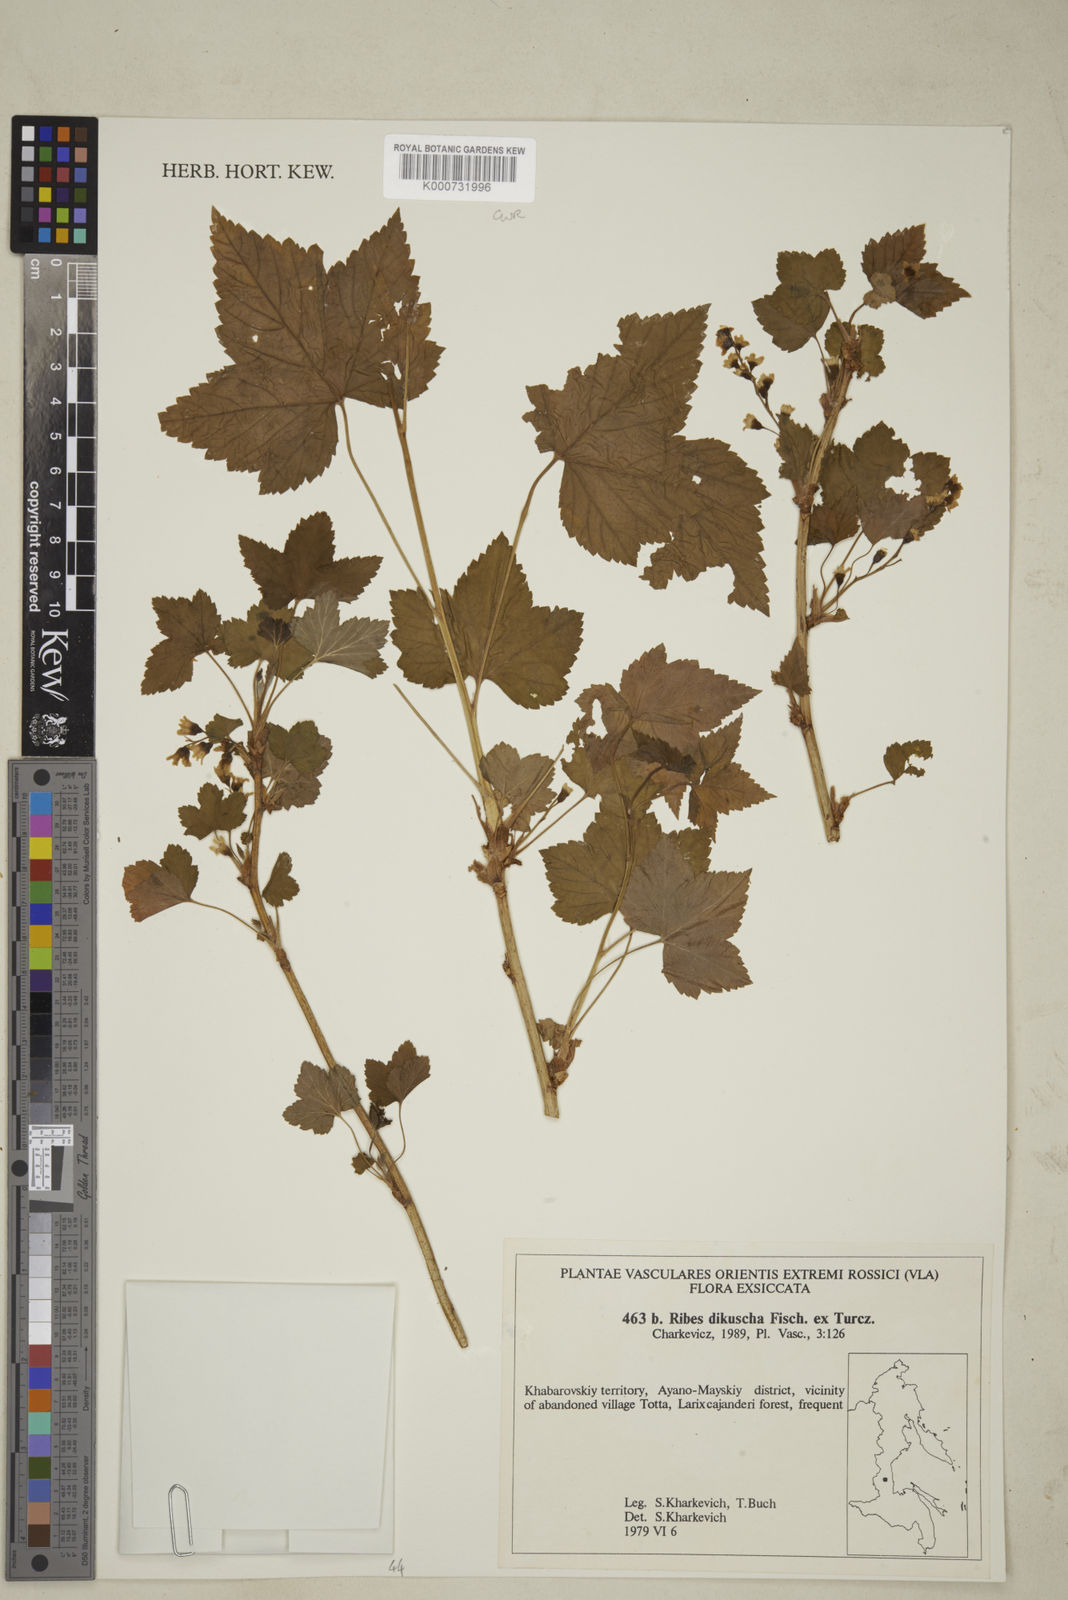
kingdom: Plantae
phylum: Tracheophyta
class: Magnoliopsida
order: Saxifragales
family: Grossulariaceae
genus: Ribes
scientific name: Ribes dikuscha
